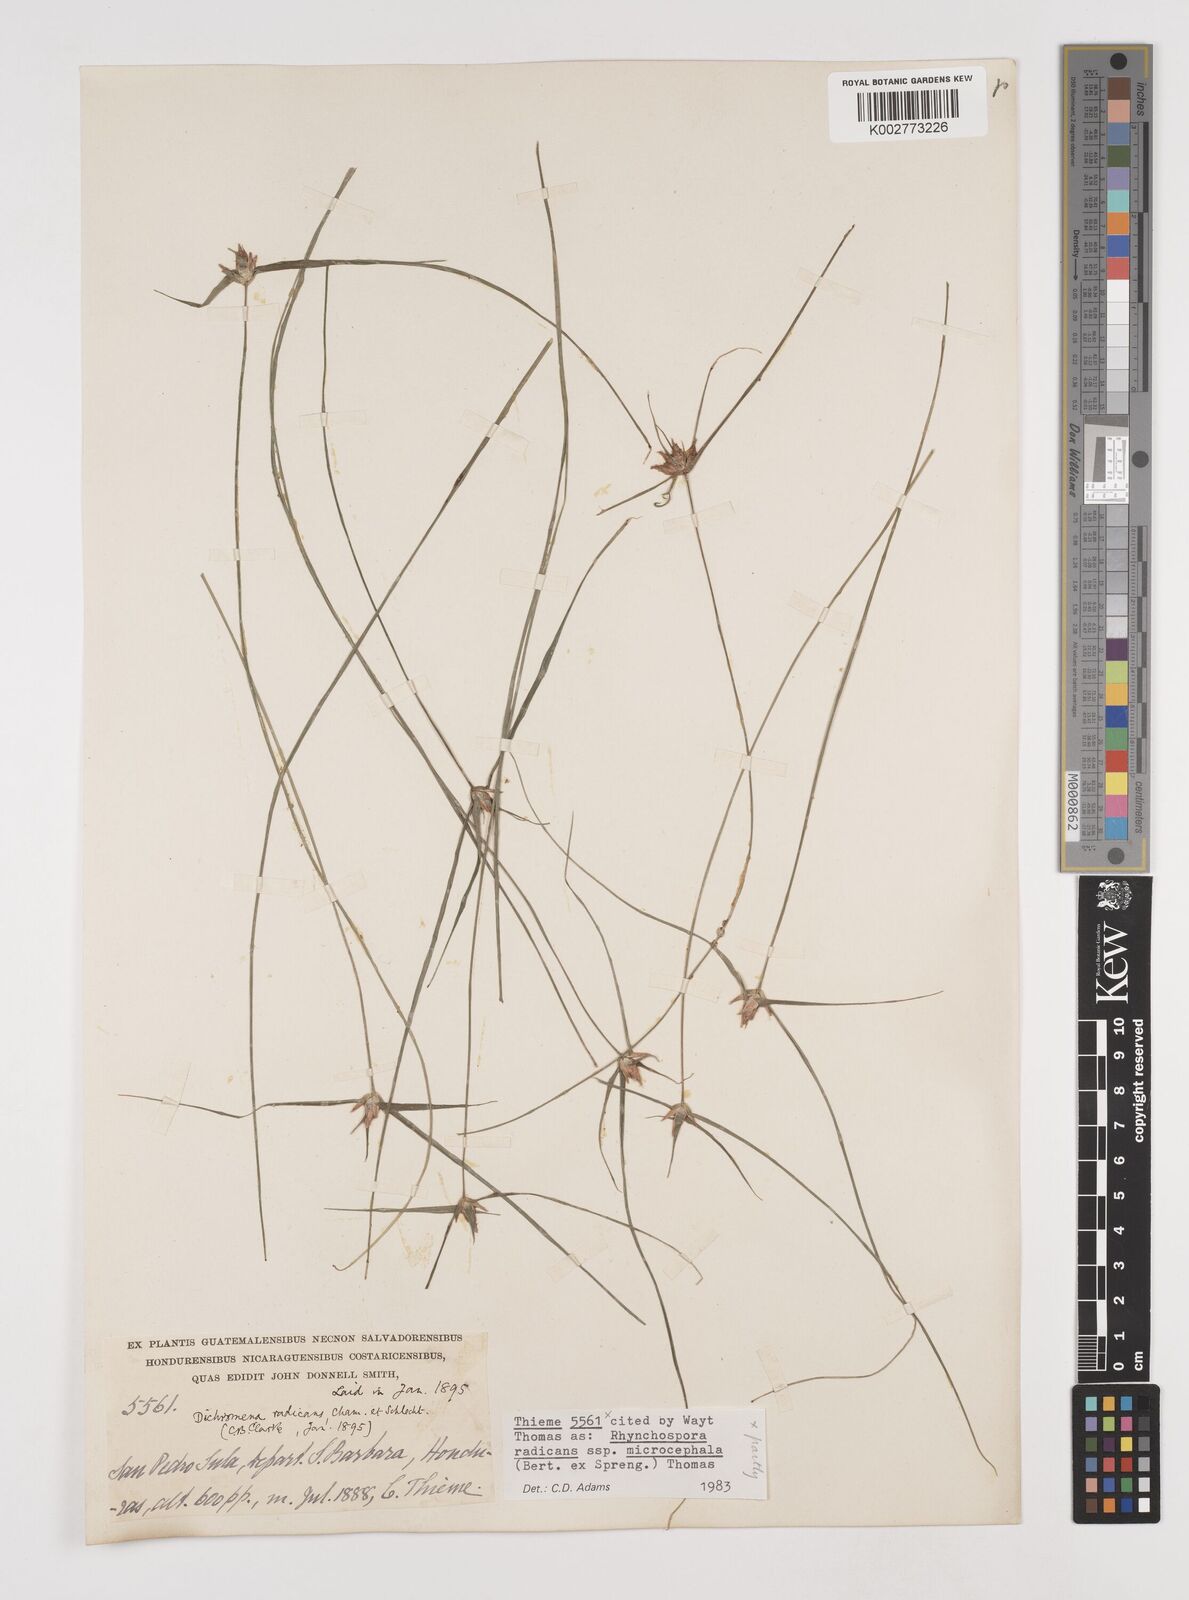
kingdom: Plantae
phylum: Tracheophyta
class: Liliopsida
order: Poales
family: Cyperaceae
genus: Rhynchospora
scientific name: Rhynchospora radicans
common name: Tropical whitetop
